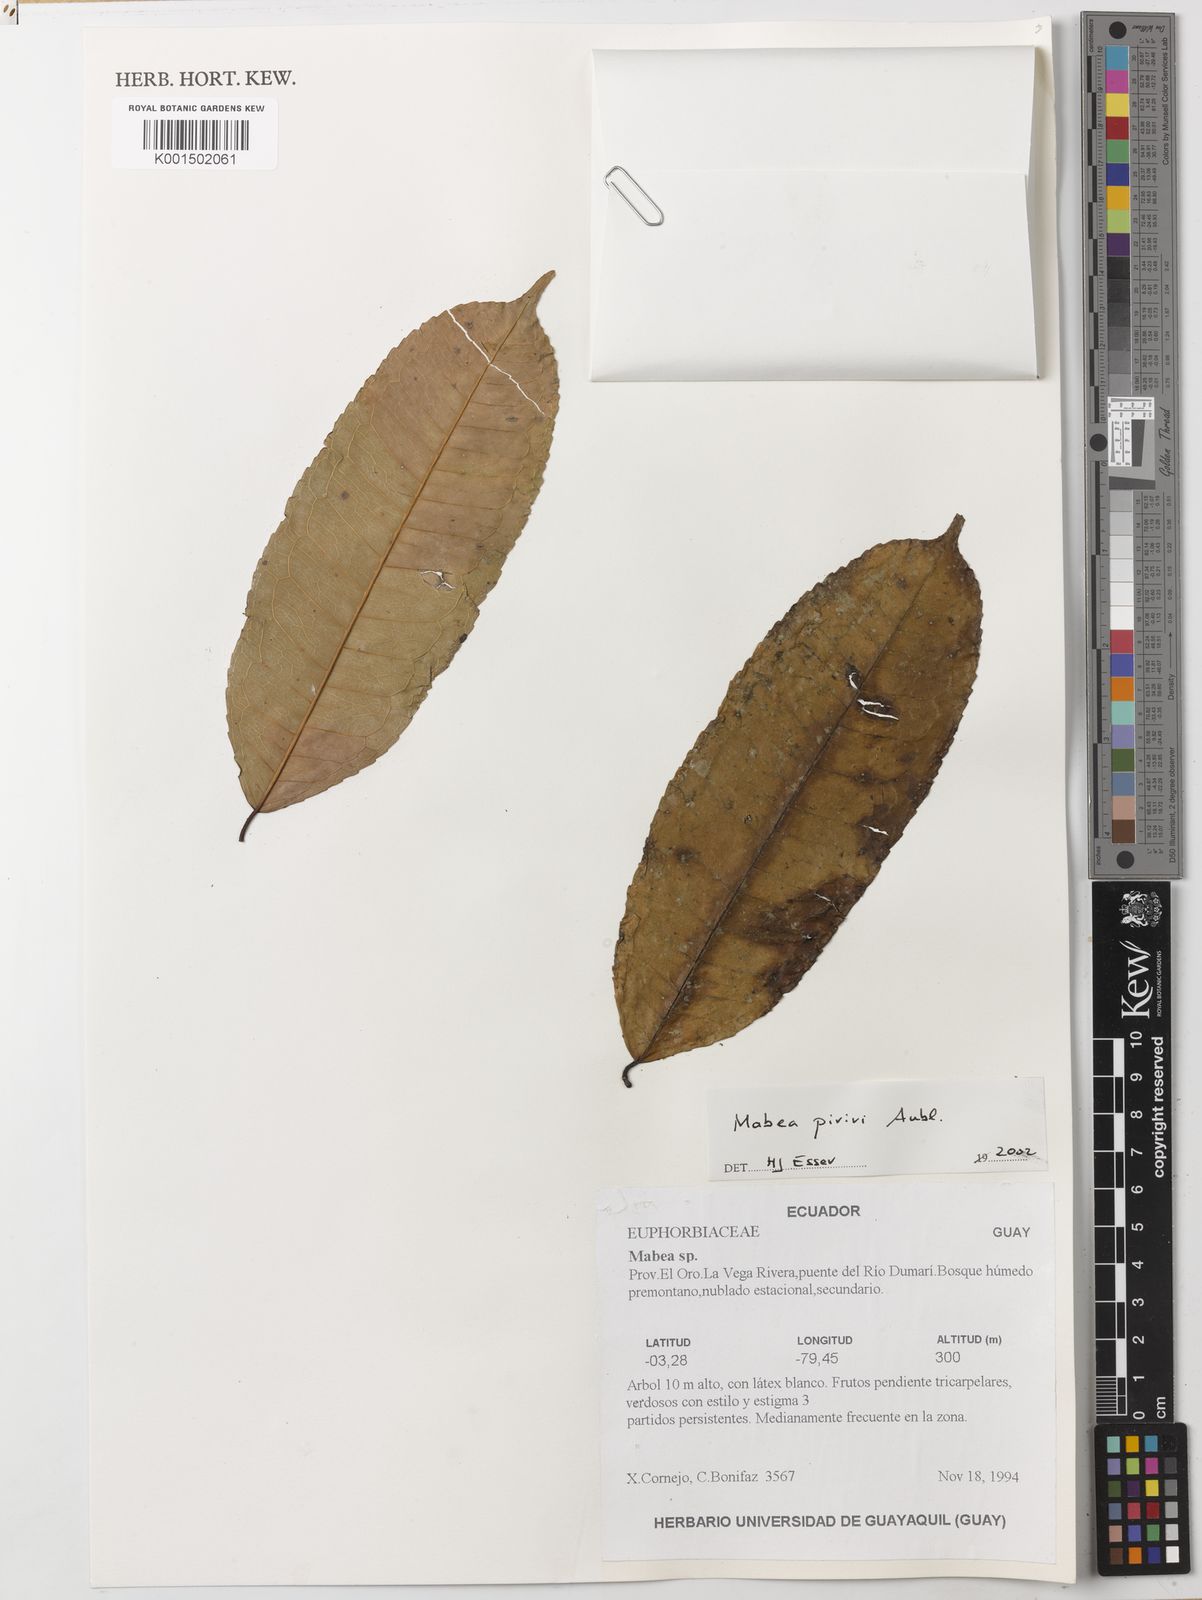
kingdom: Plantae
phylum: Tracheophyta
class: Magnoliopsida
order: Malpighiales
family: Euphorbiaceae
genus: Mabea
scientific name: Mabea piriri
